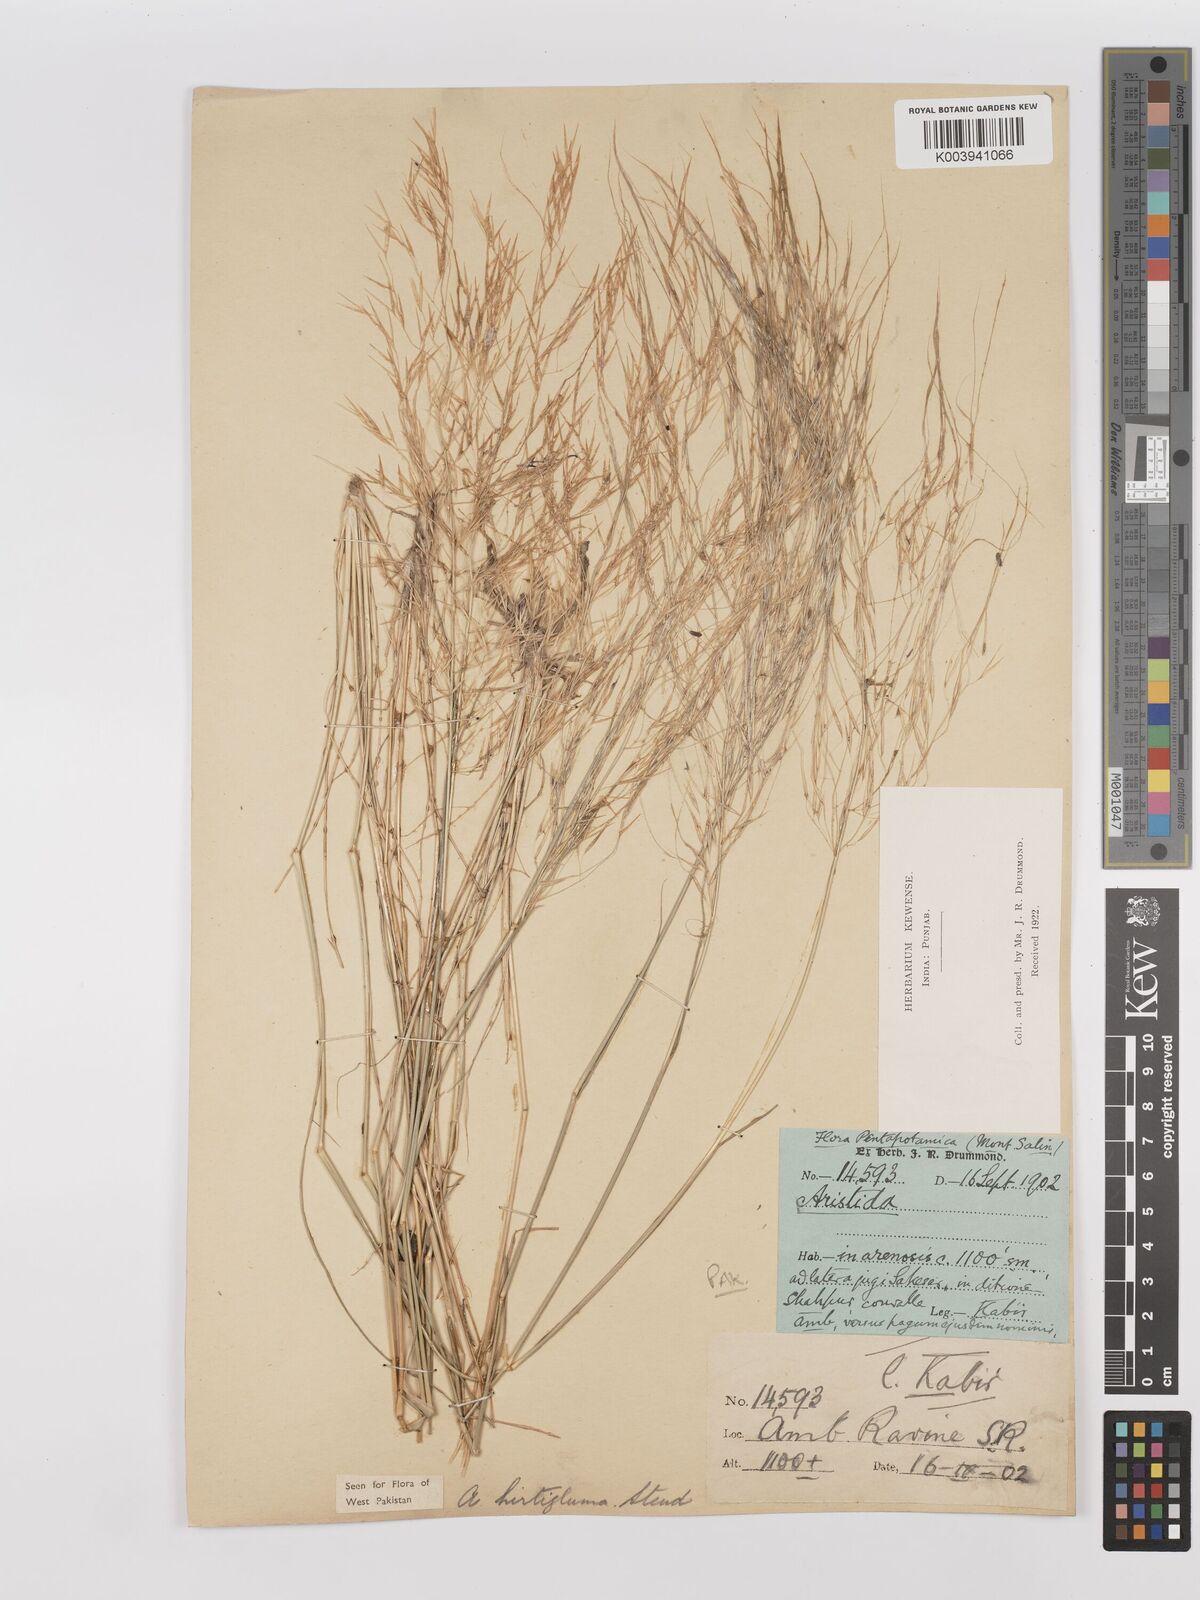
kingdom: Plantae
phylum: Tracheophyta
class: Liliopsida
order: Poales
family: Poaceae
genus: Stipagrostis
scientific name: Stipagrostis hirtigluma
